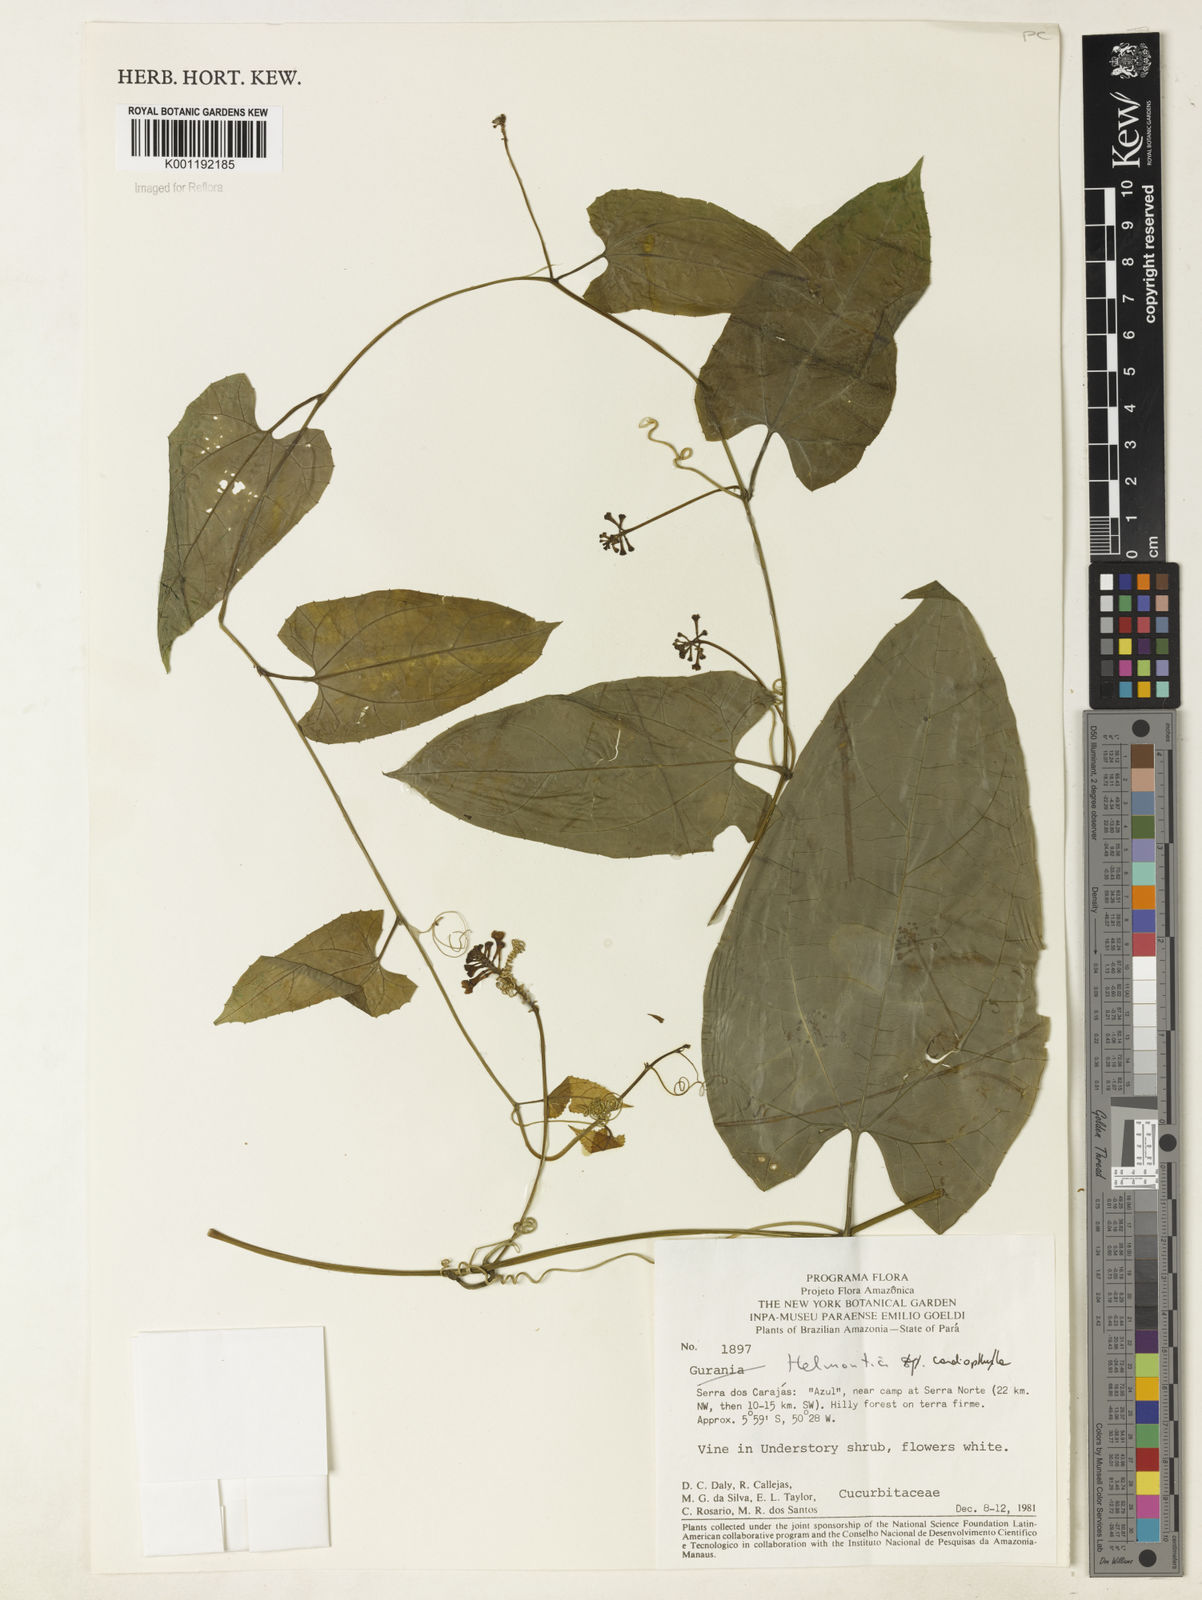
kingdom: Plantae
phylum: Tracheophyta
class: Magnoliopsida
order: Cucurbitales
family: Cucurbitaceae
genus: Helmontia
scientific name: Helmontia cardiophylla
